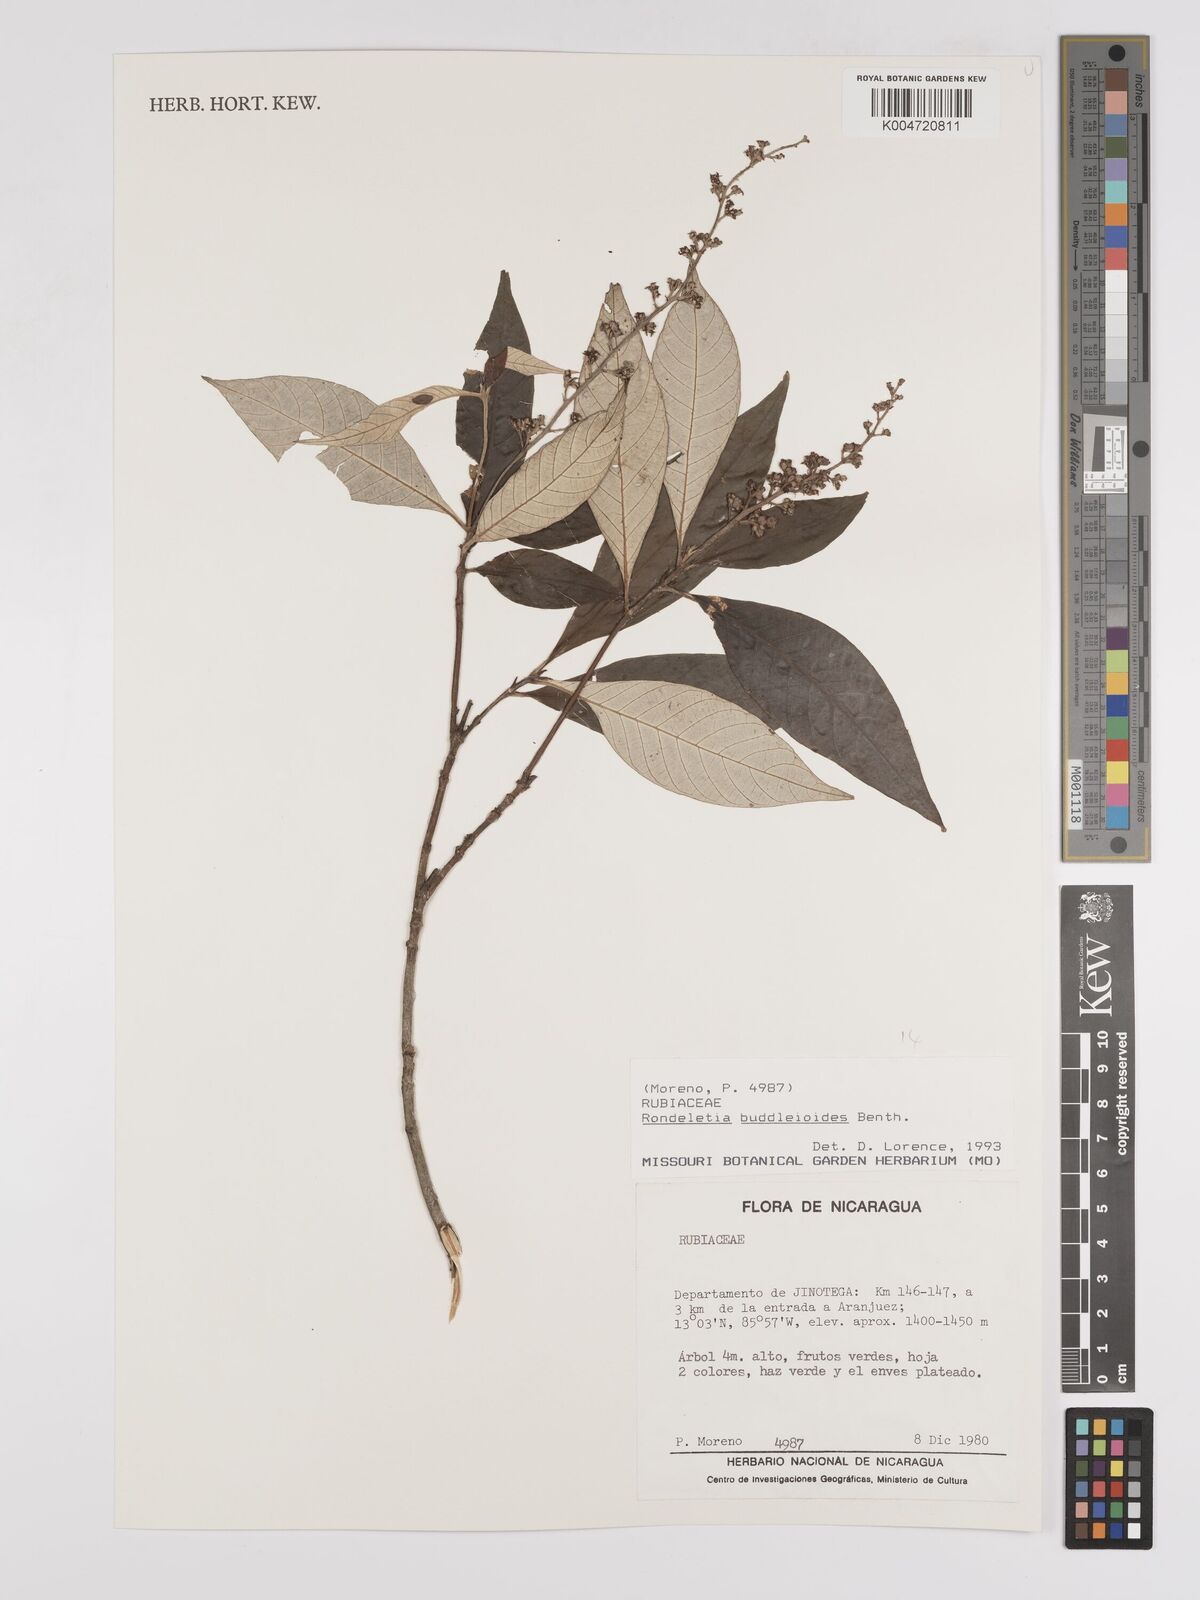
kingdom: Plantae
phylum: Tracheophyta
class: Magnoliopsida
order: Gentianales
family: Rubiaceae
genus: Arachnothryx
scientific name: Arachnothryx buddleioides
